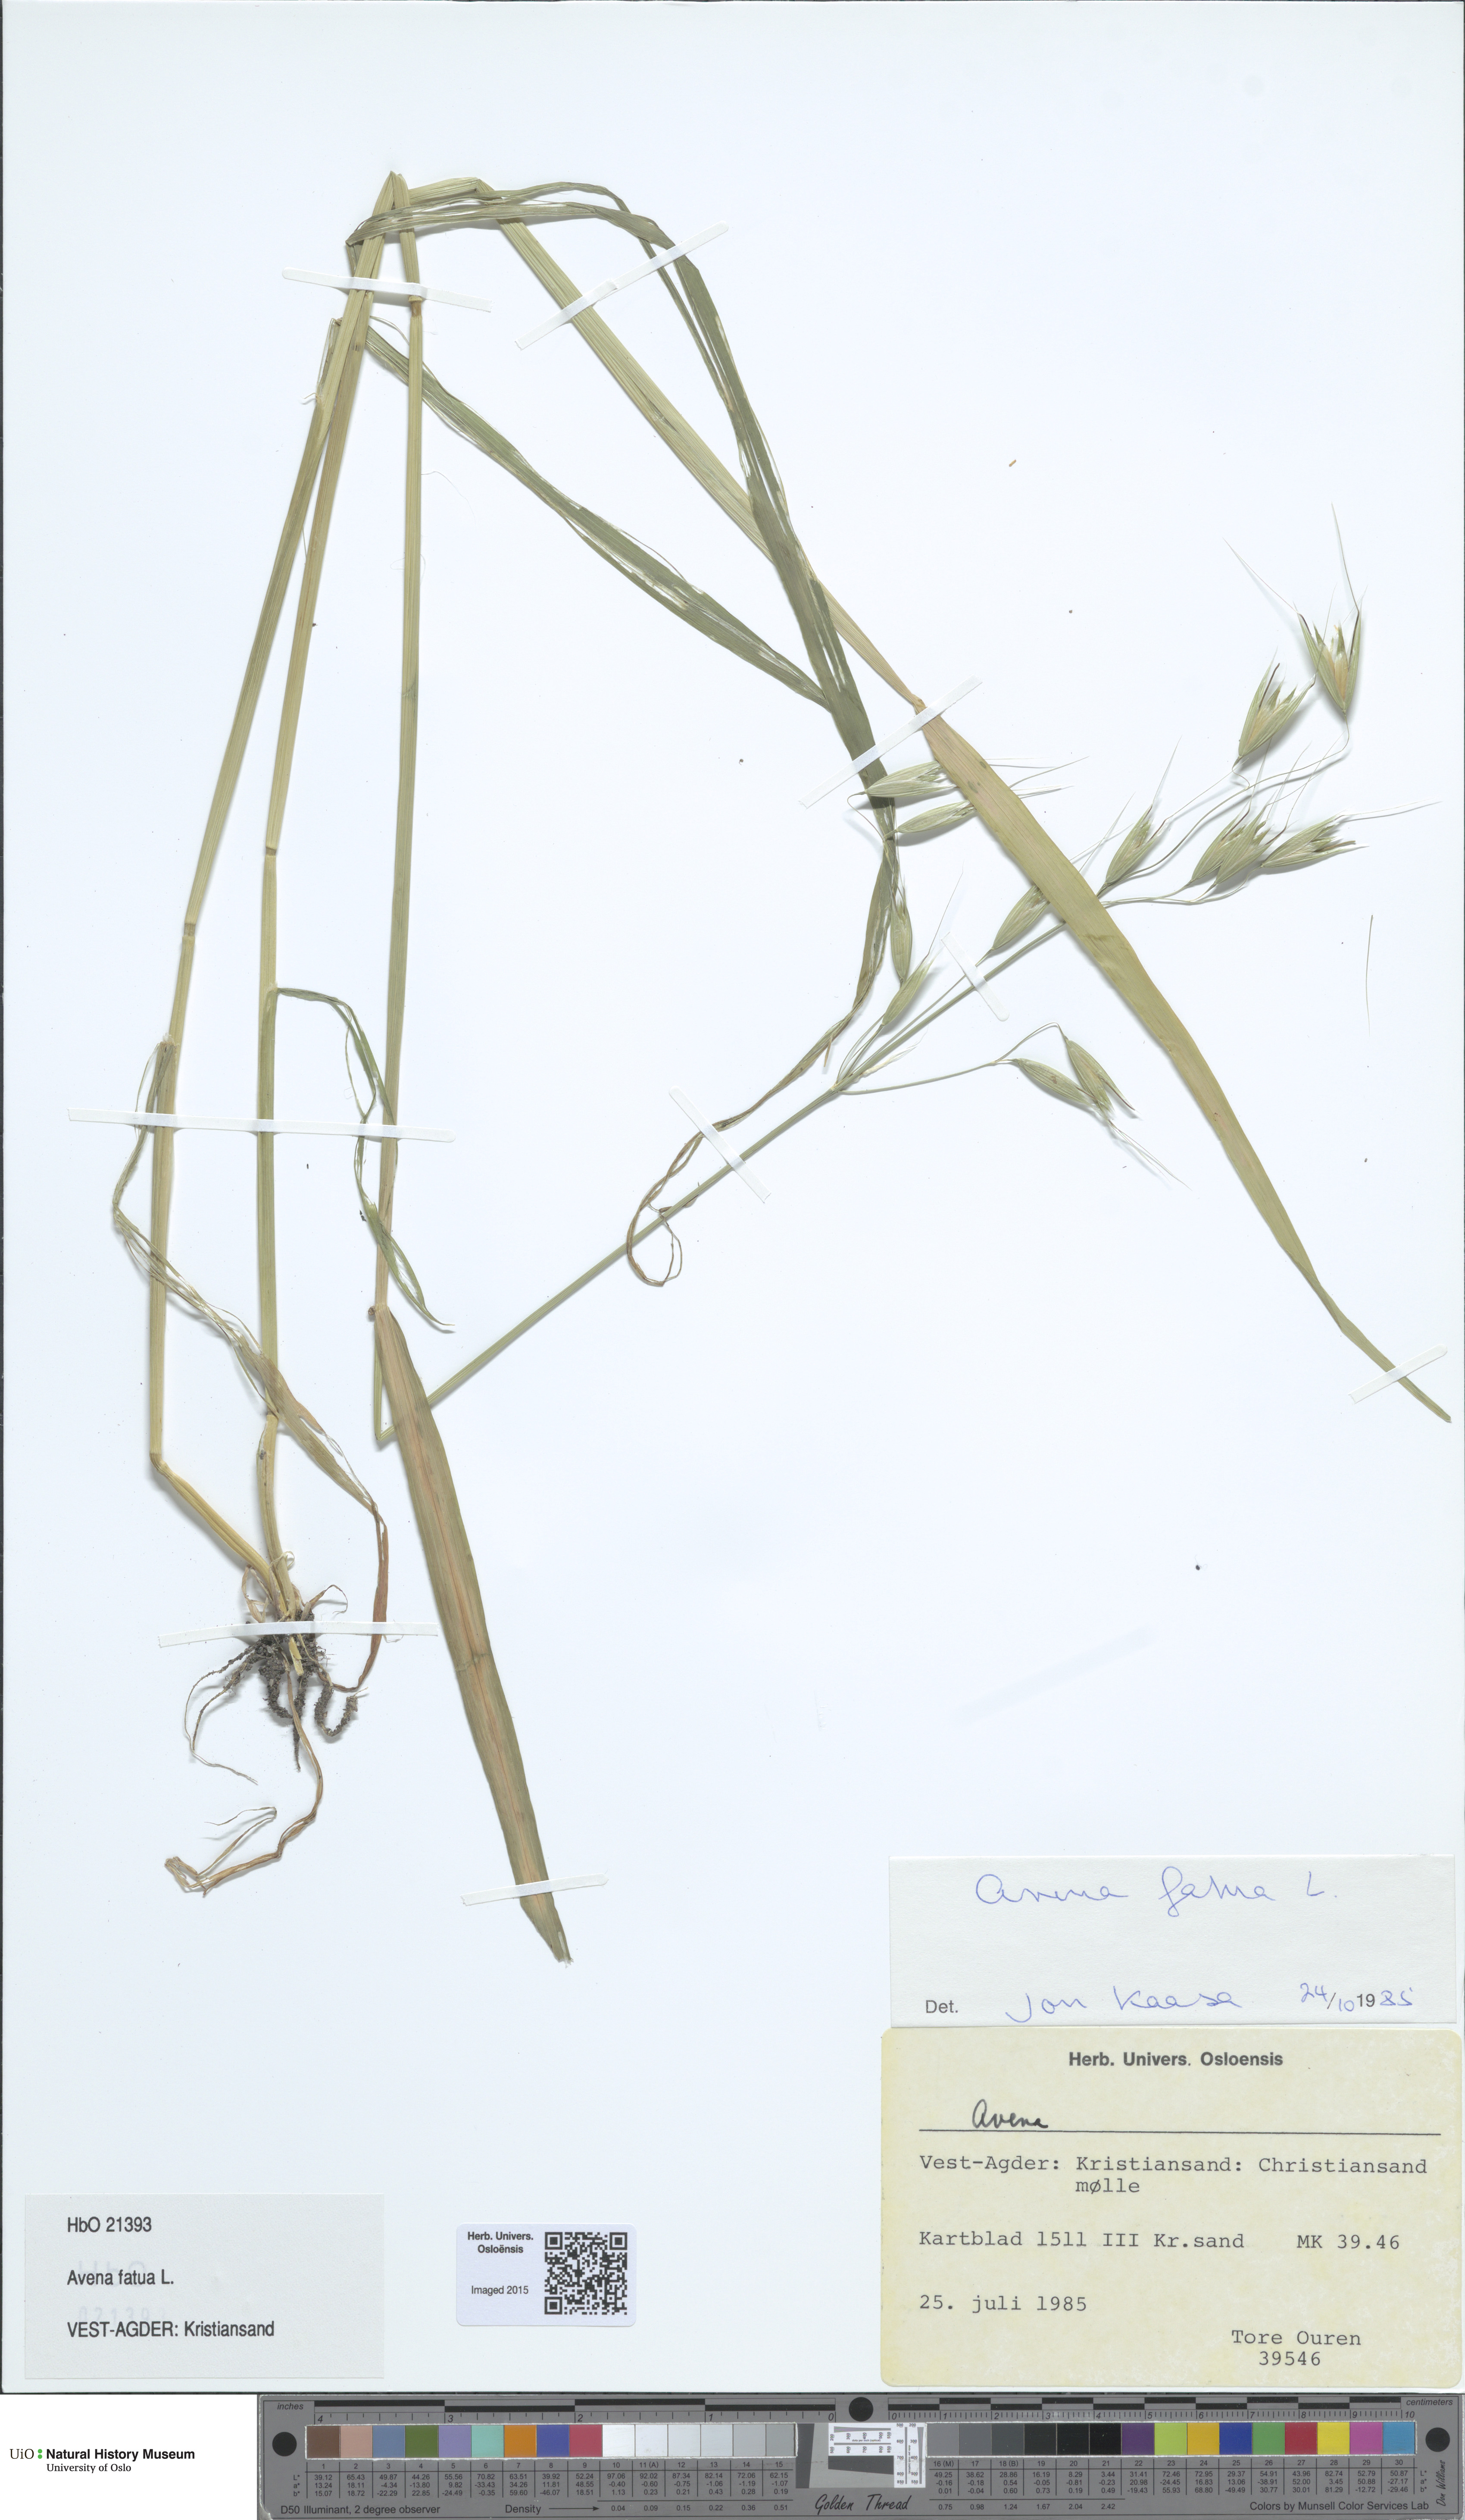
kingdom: Plantae
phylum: Tracheophyta
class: Liliopsida
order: Poales
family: Poaceae
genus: Avena
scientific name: Avena fatua
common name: Wild oat
